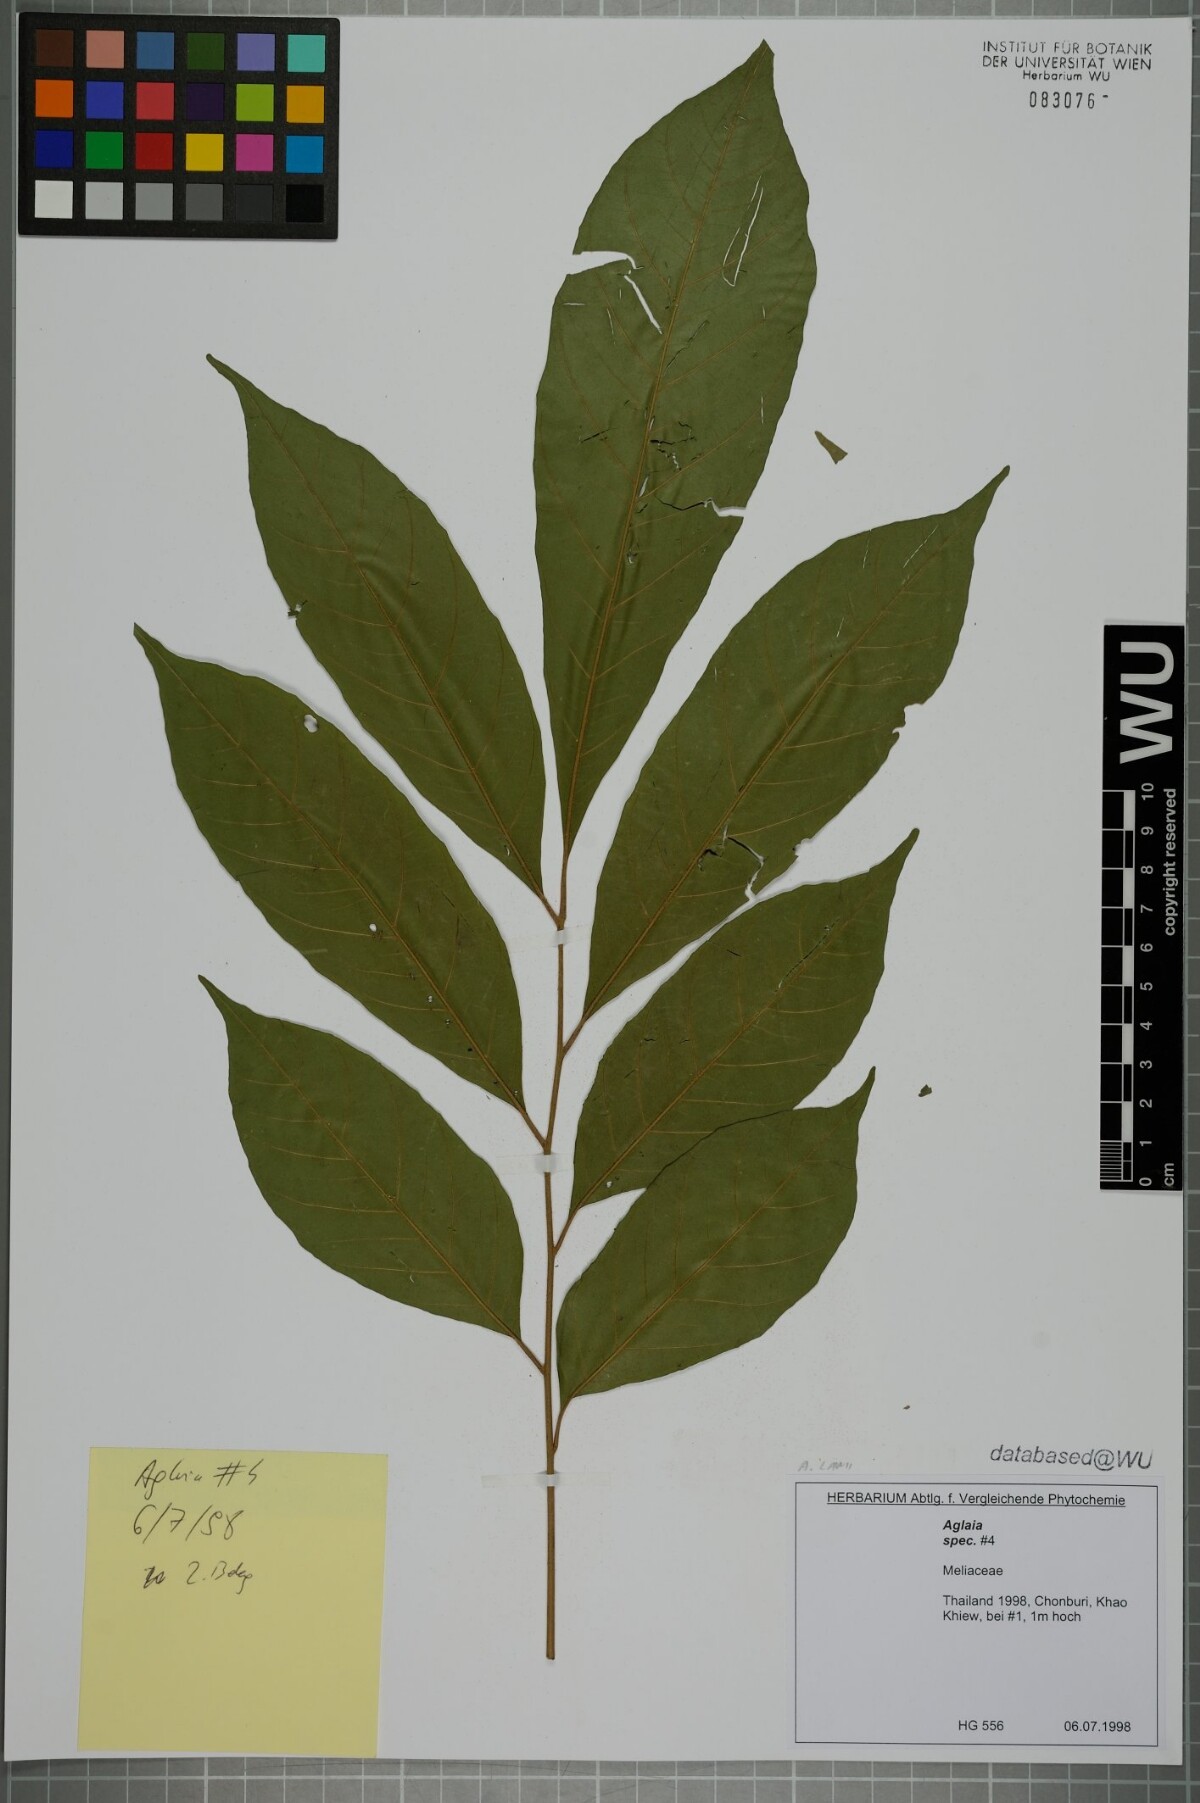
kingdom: Plantae
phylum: Tracheophyta
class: Magnoliopsida
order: Sapindales
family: Meliaceae
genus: Aglaia
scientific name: Aglaia lawii
